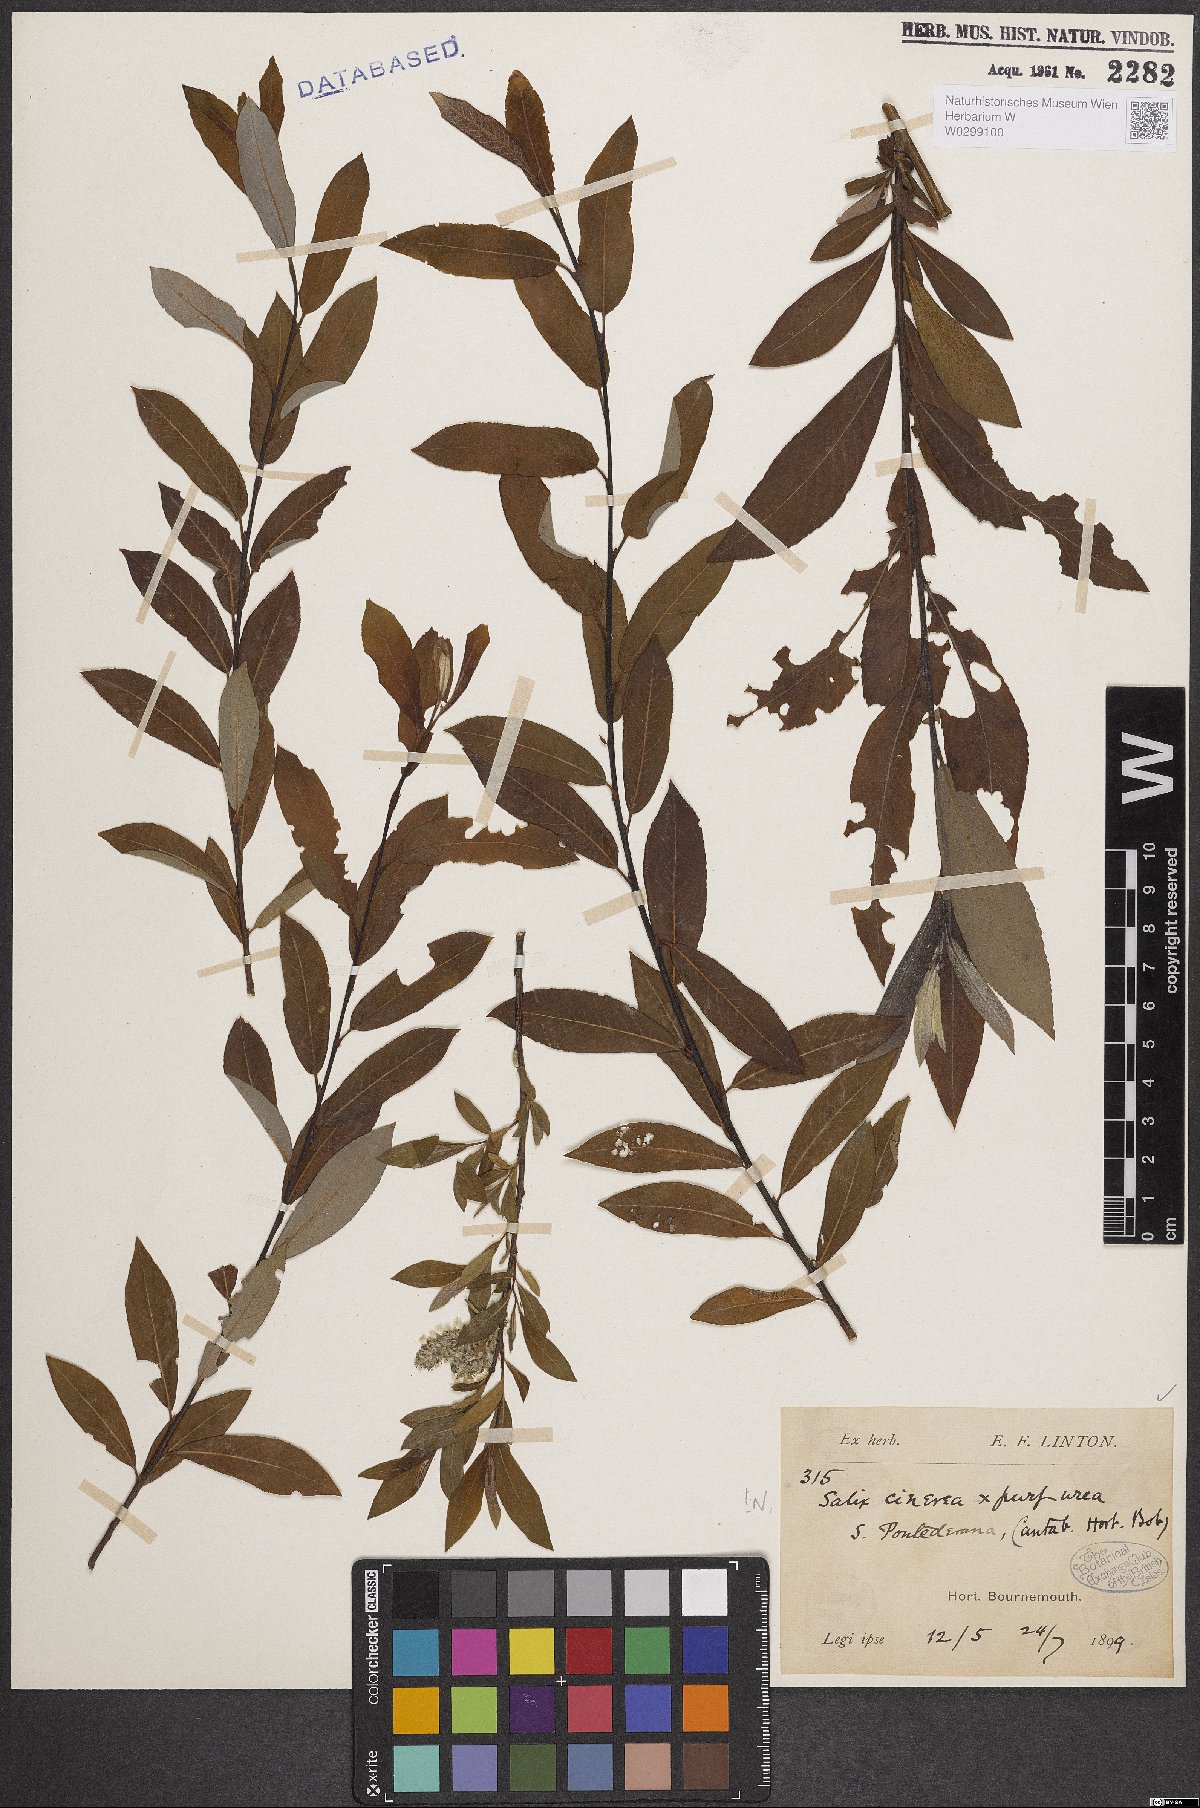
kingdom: Plantae
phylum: Tracheophyta
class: Magnoliopsida
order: Malpighiales
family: Salicaceae
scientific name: Salicaceae
